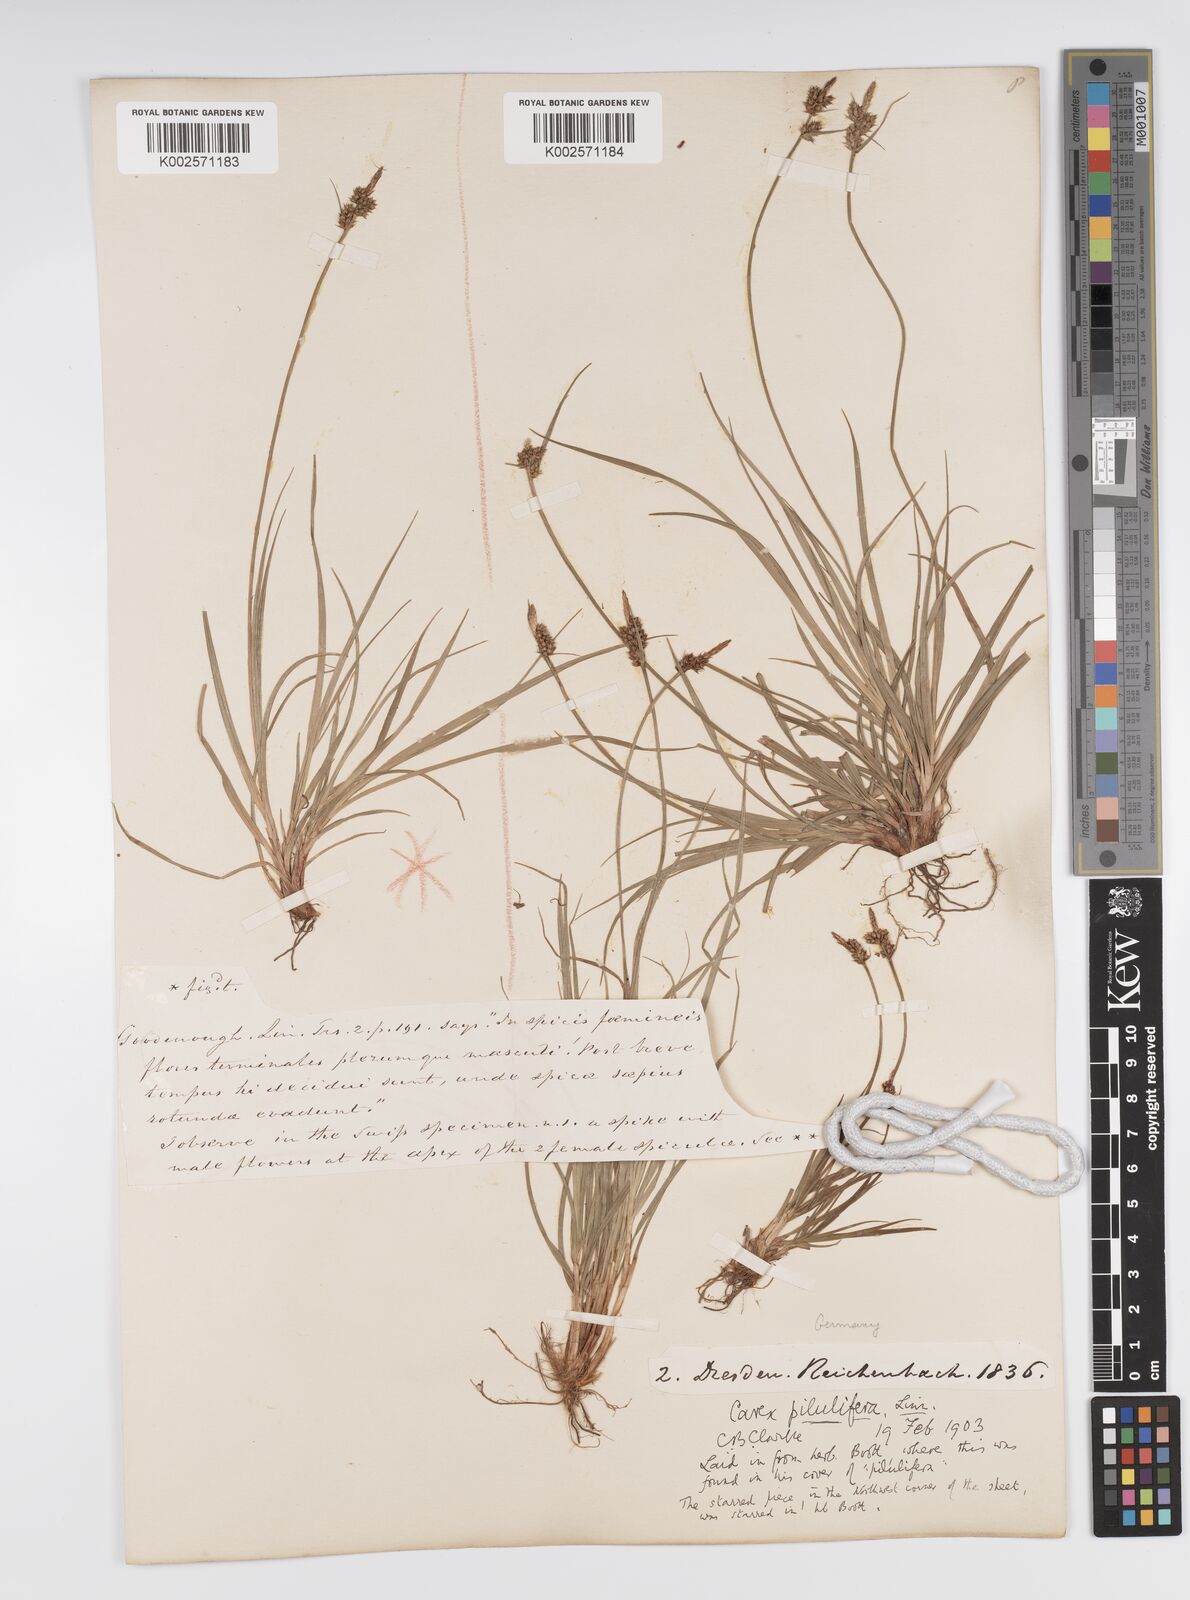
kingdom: Plantae
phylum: Tracheophyta
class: Liliopsida
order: Poales
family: Cyperaceae
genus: Carex
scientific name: Carex pilulifera
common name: Pill sedge
